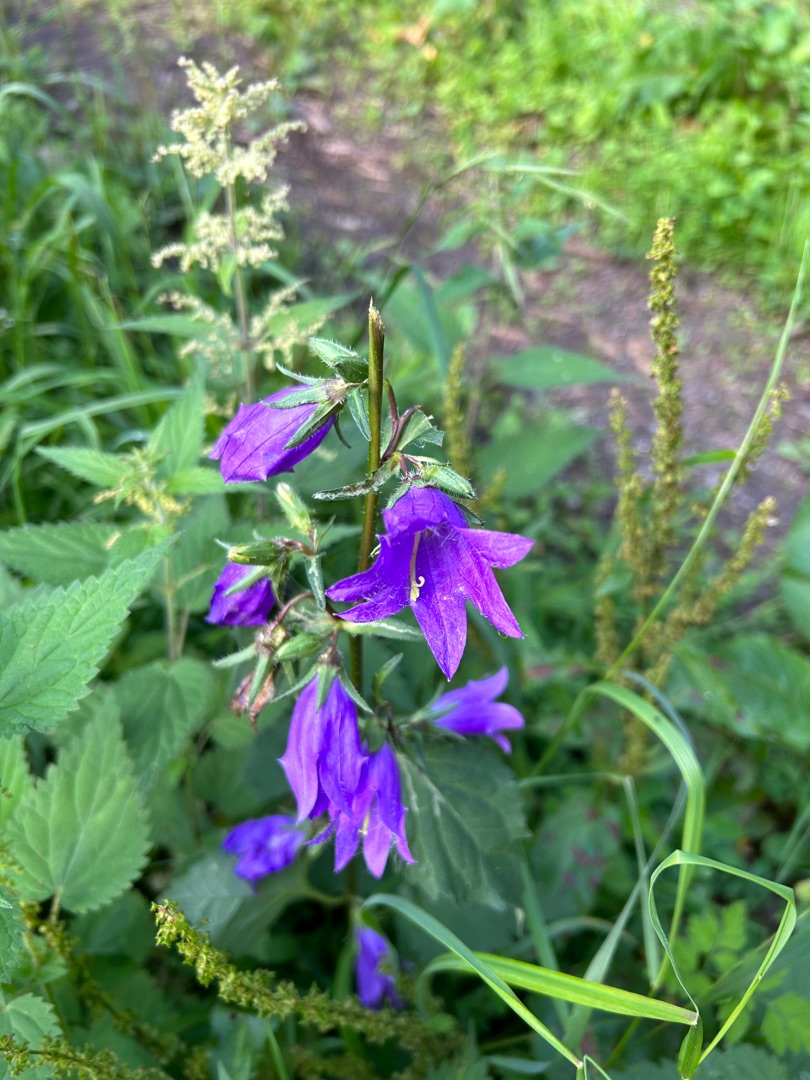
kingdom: Plantae
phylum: Tracheophyta
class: Magnoliopsida
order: Asterales
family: Campanulaceae
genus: Campanula
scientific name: Campanula trachelium
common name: Nælde-klokke
